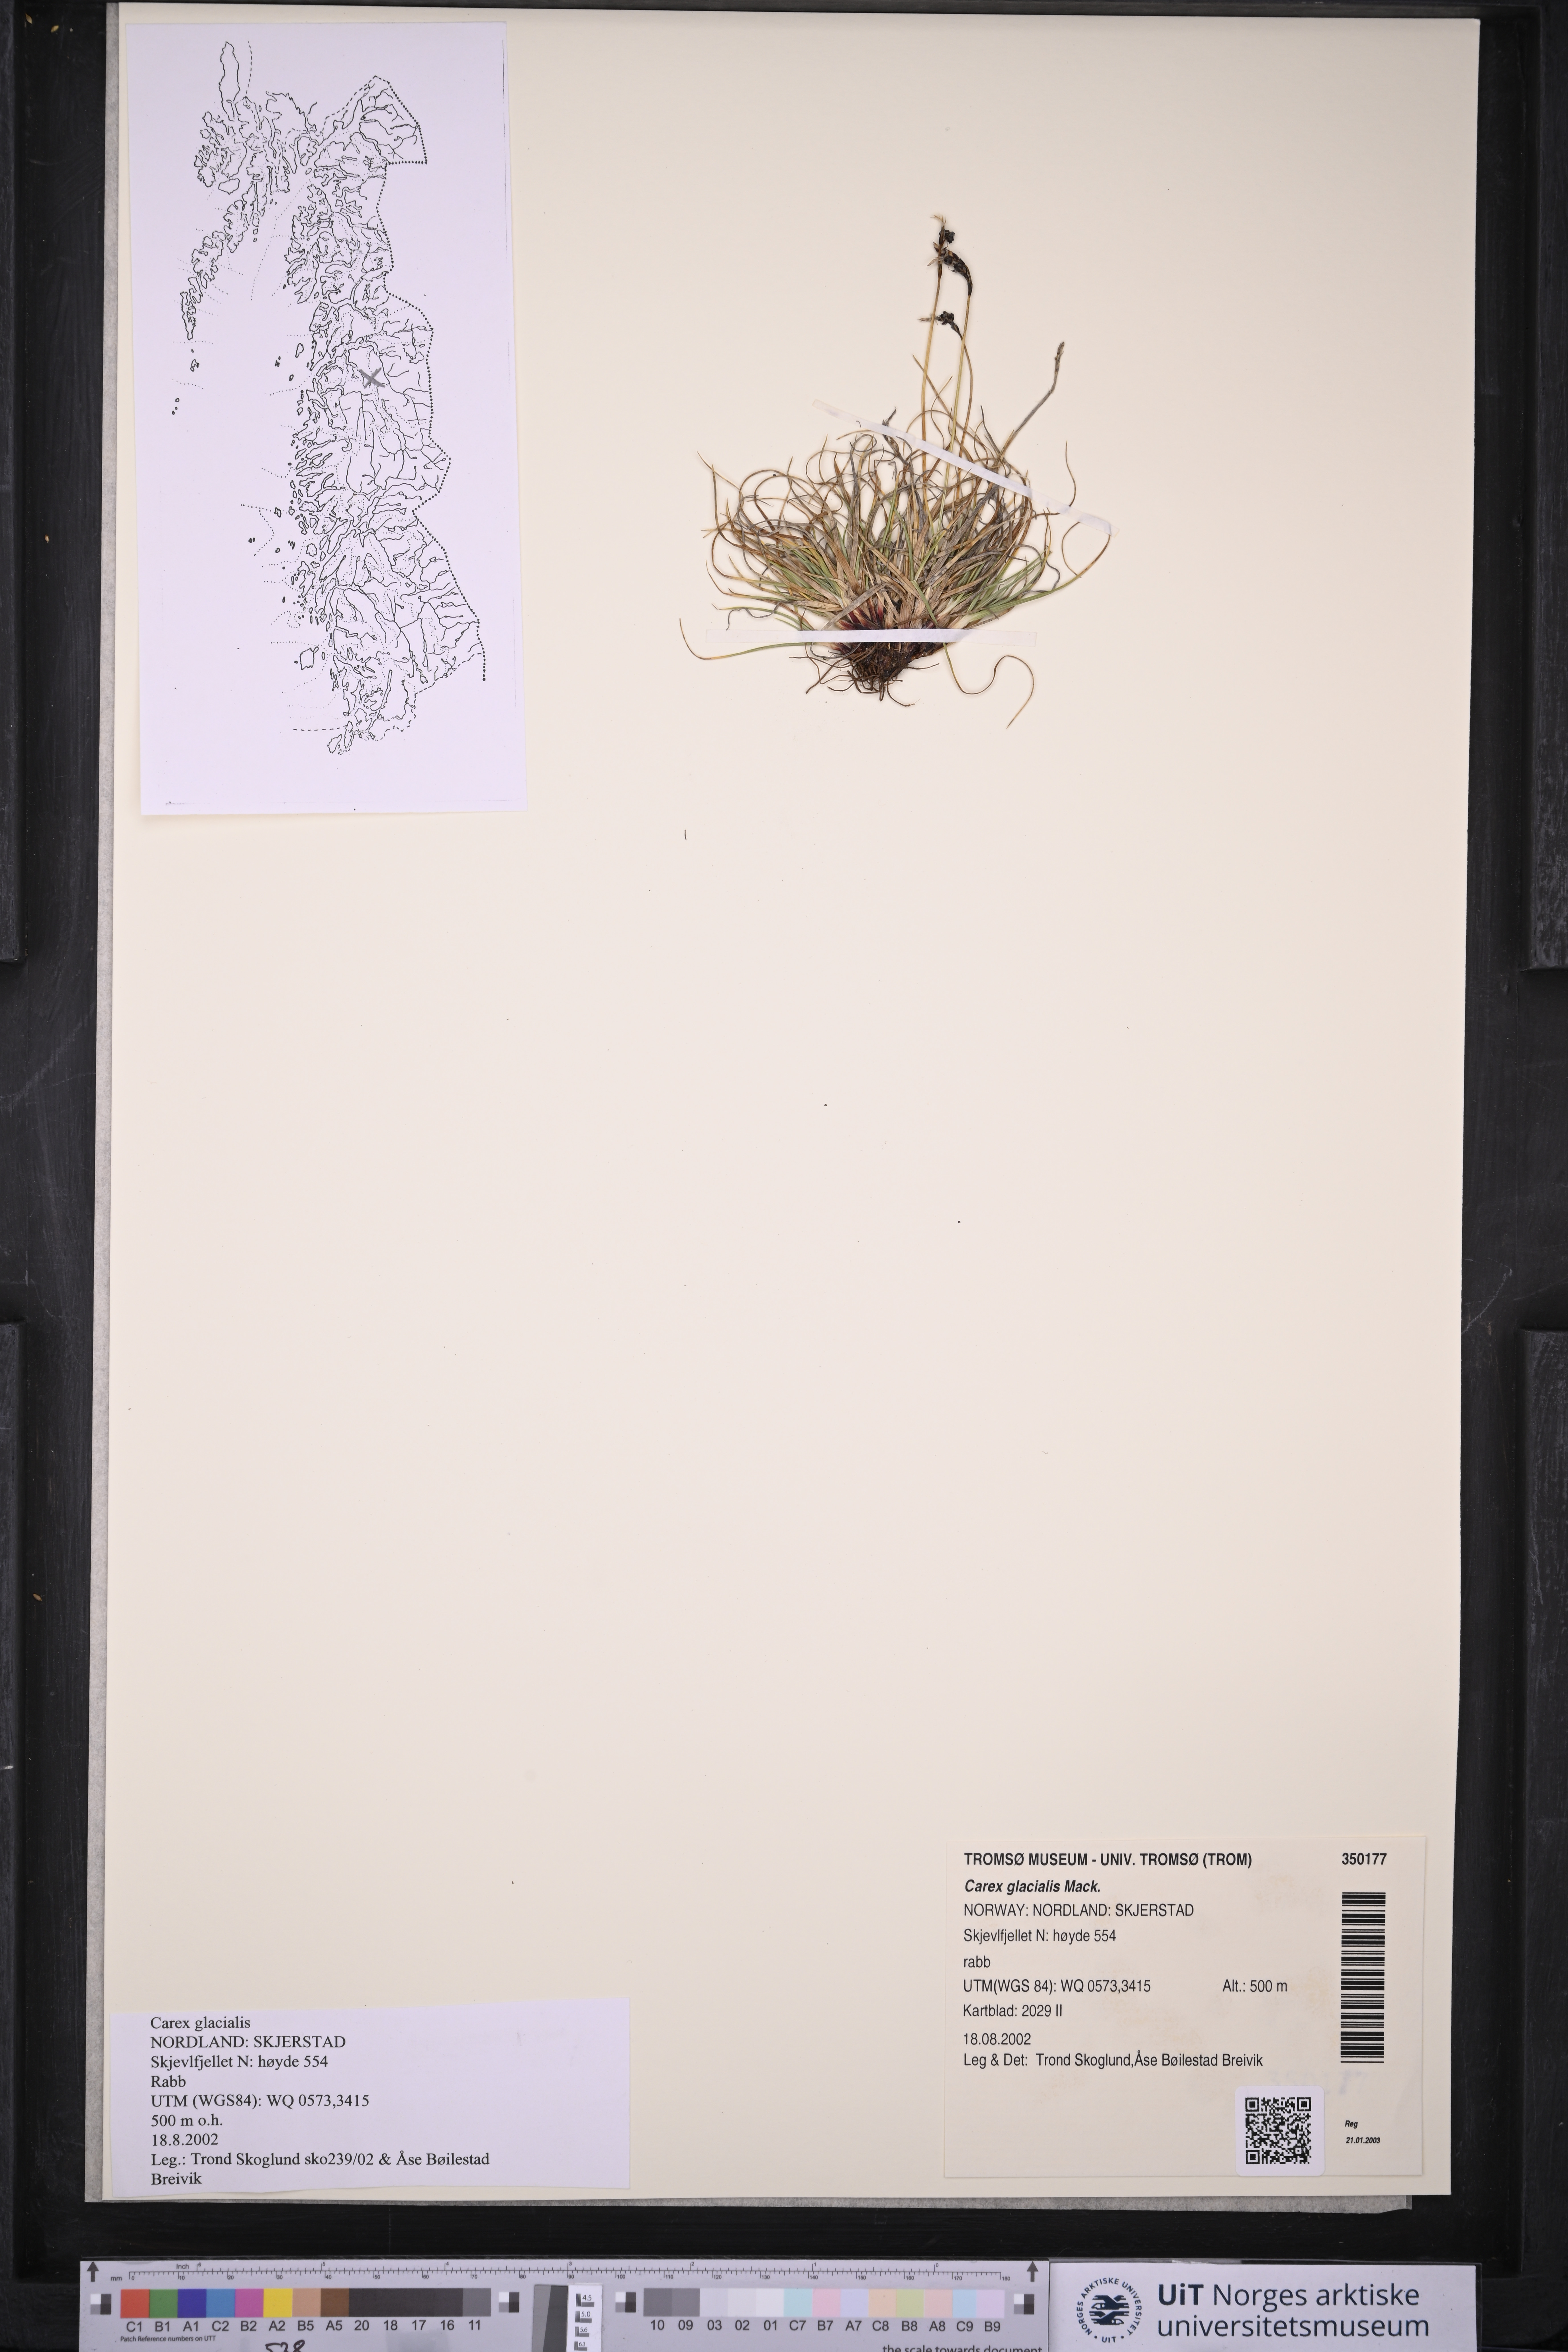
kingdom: Plantae
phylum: Tracheophyta
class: Liliopsida
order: Poales
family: Cyperaceae
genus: Carex
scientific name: Carex glacialis
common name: Newfoundland sedge
